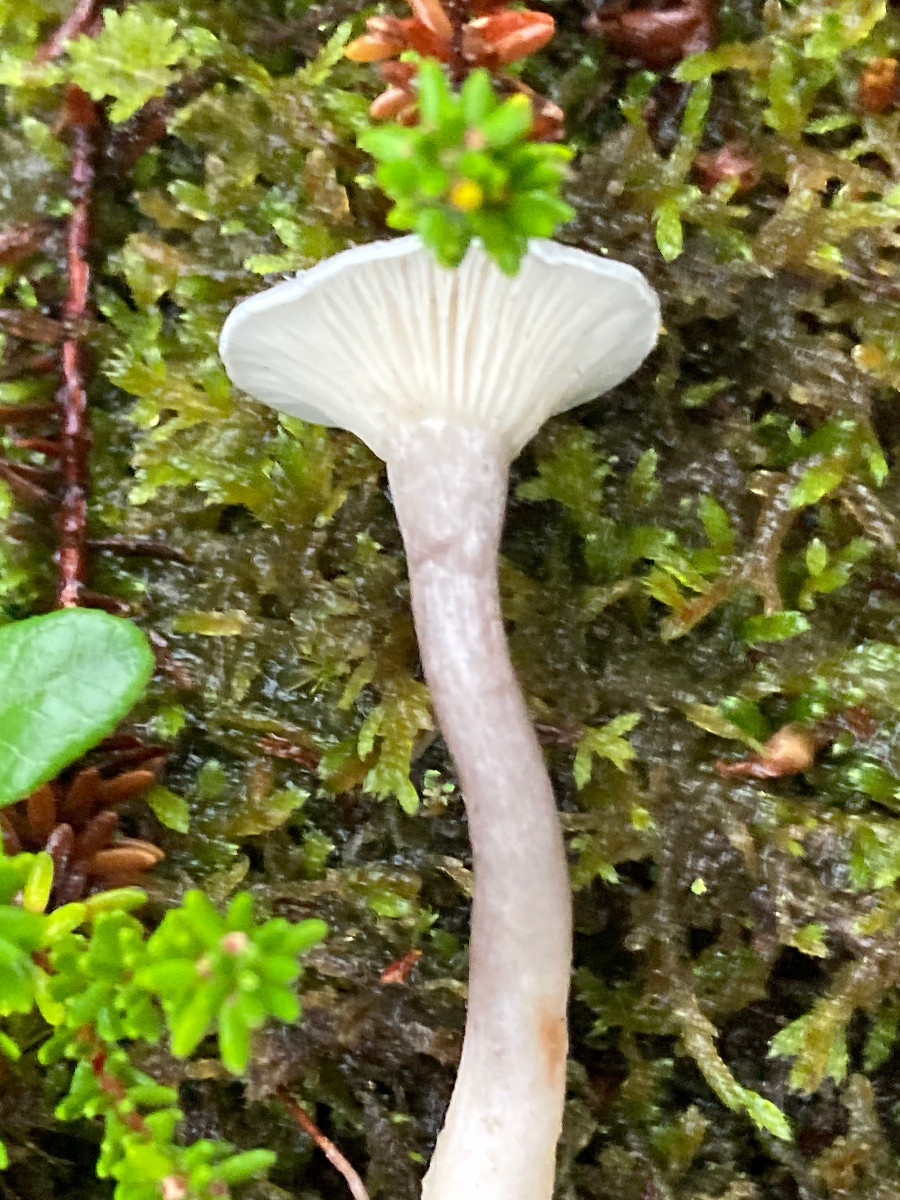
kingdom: Fungi
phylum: Basidiomycota
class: Agaricomycetes
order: Agaricales
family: Hygrophoraceae
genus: Cantharellula
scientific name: Cantharellula umbonata
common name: rødmende gaffelblad
